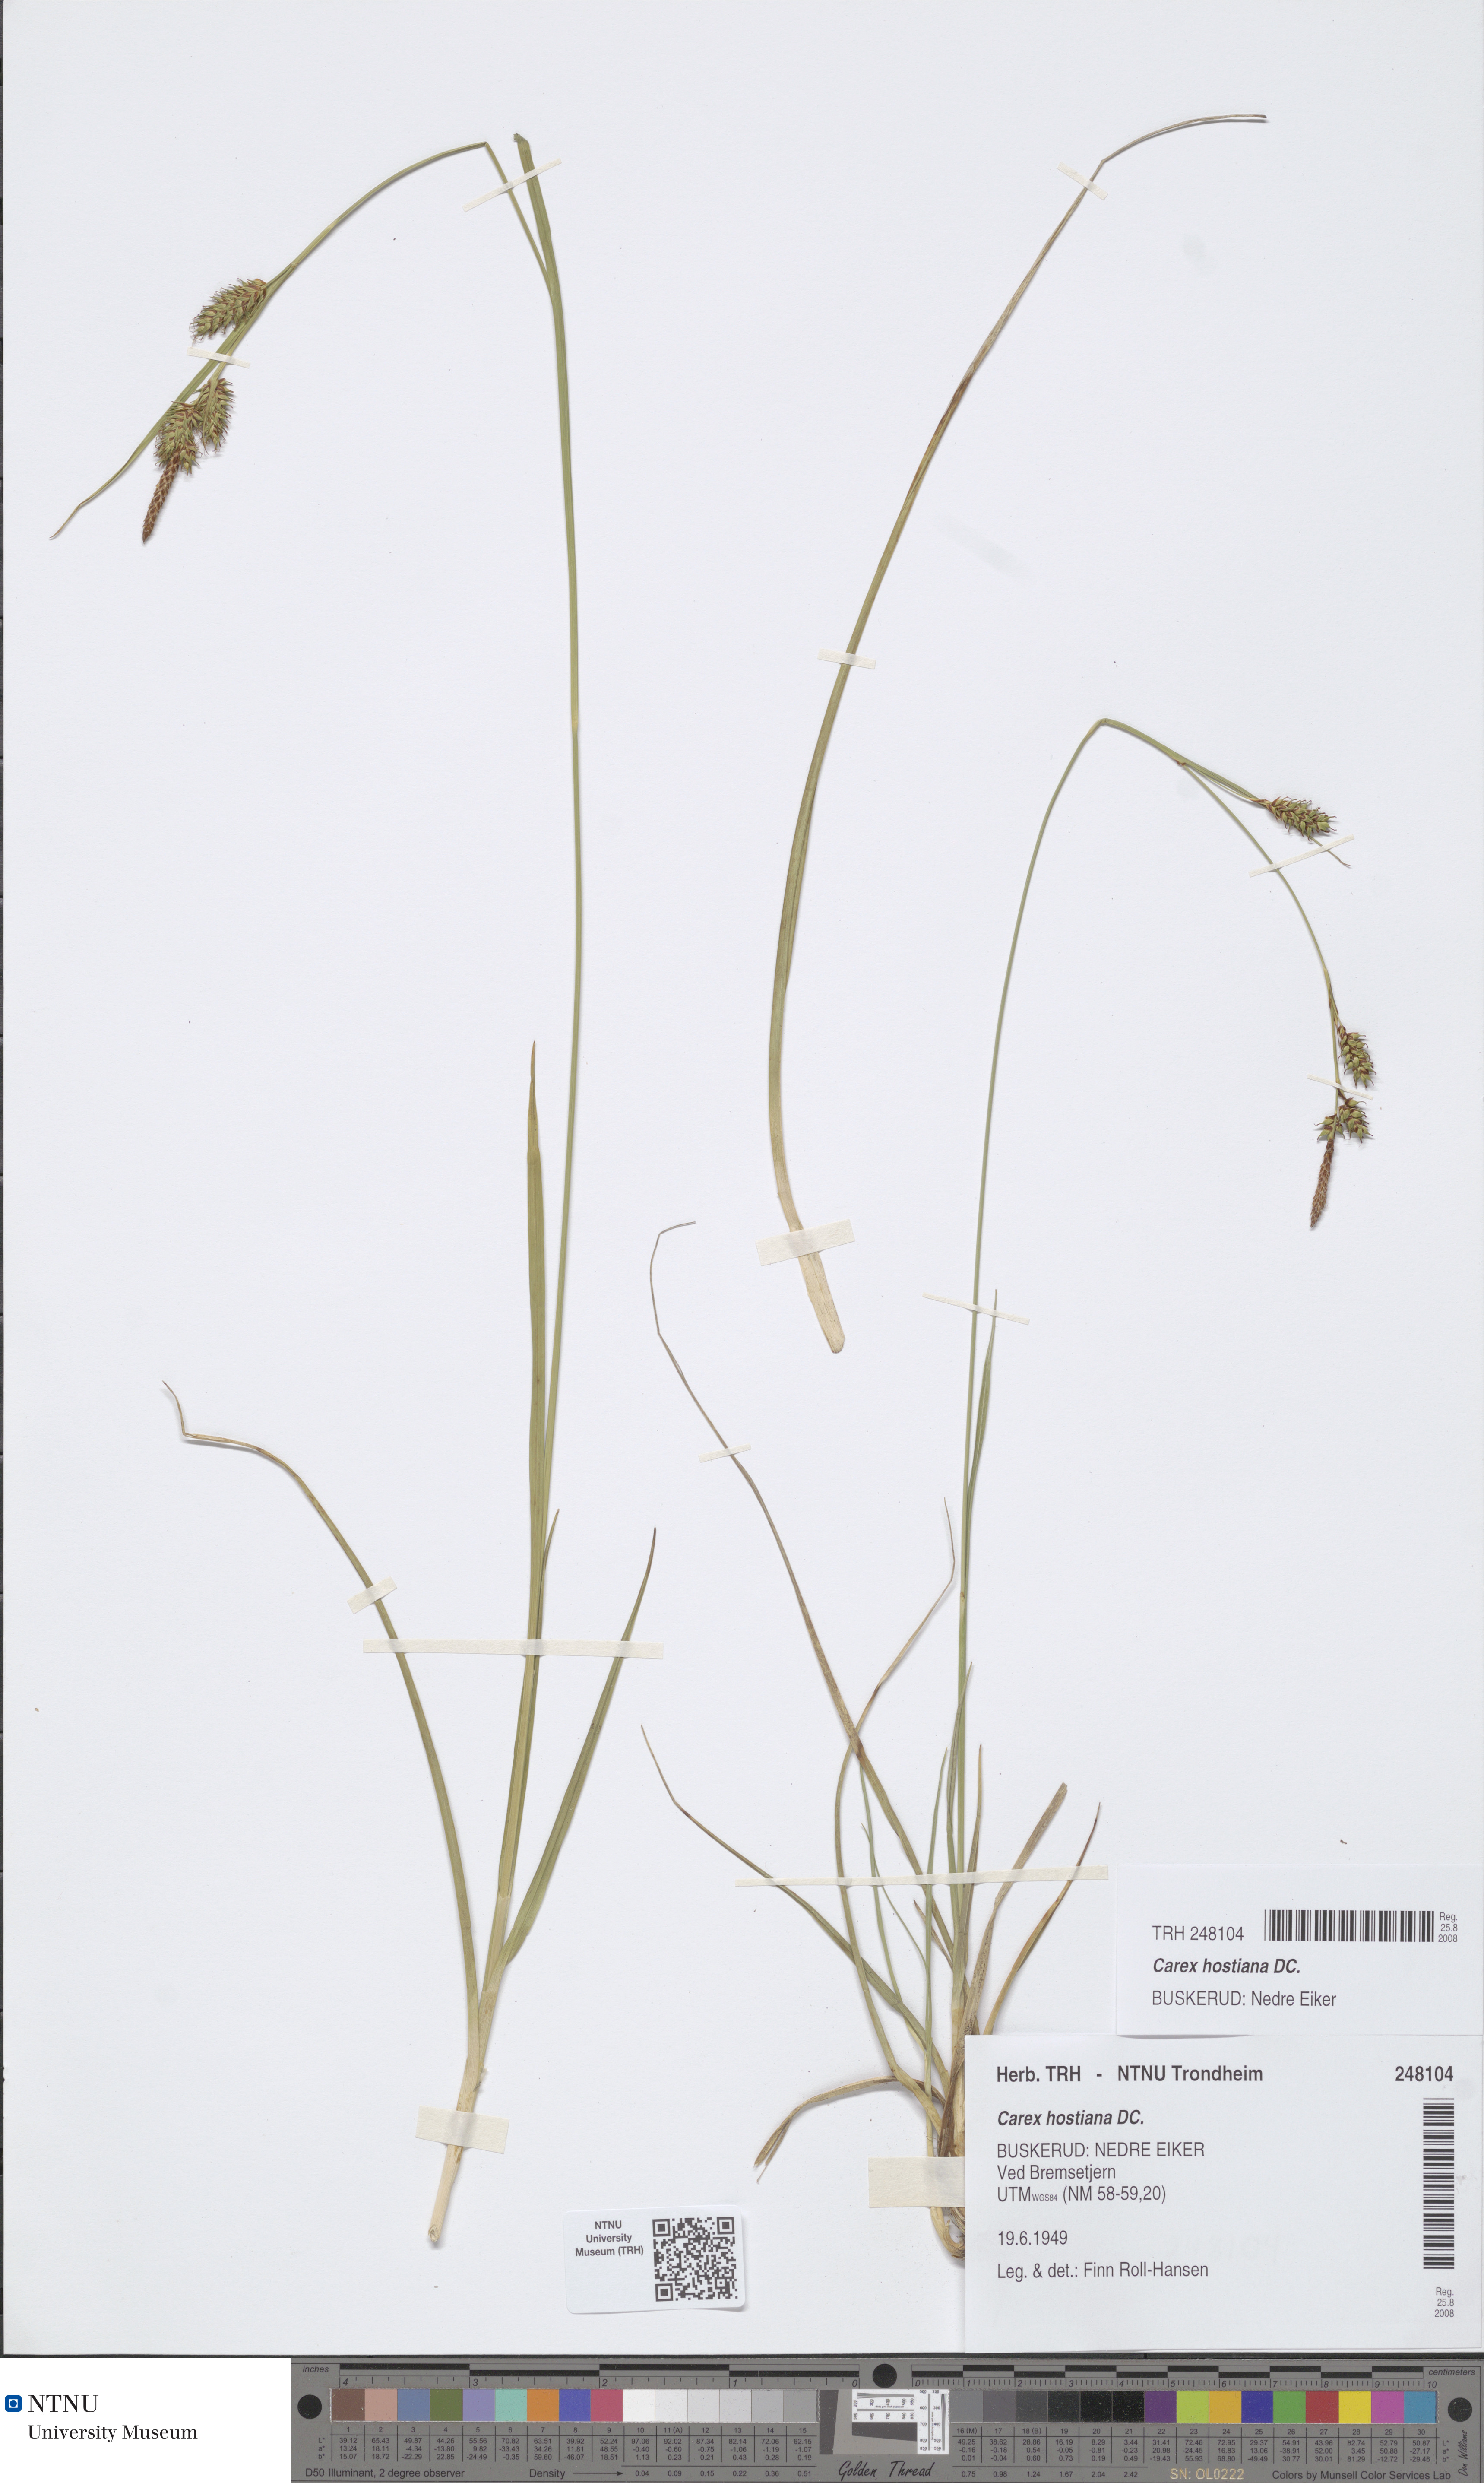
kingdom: Plantae
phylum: Tracheophyta
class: Liliopsida
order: Poales
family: Cyperaceae
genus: Carex
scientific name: Carex hostiana
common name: Tawny sedge
